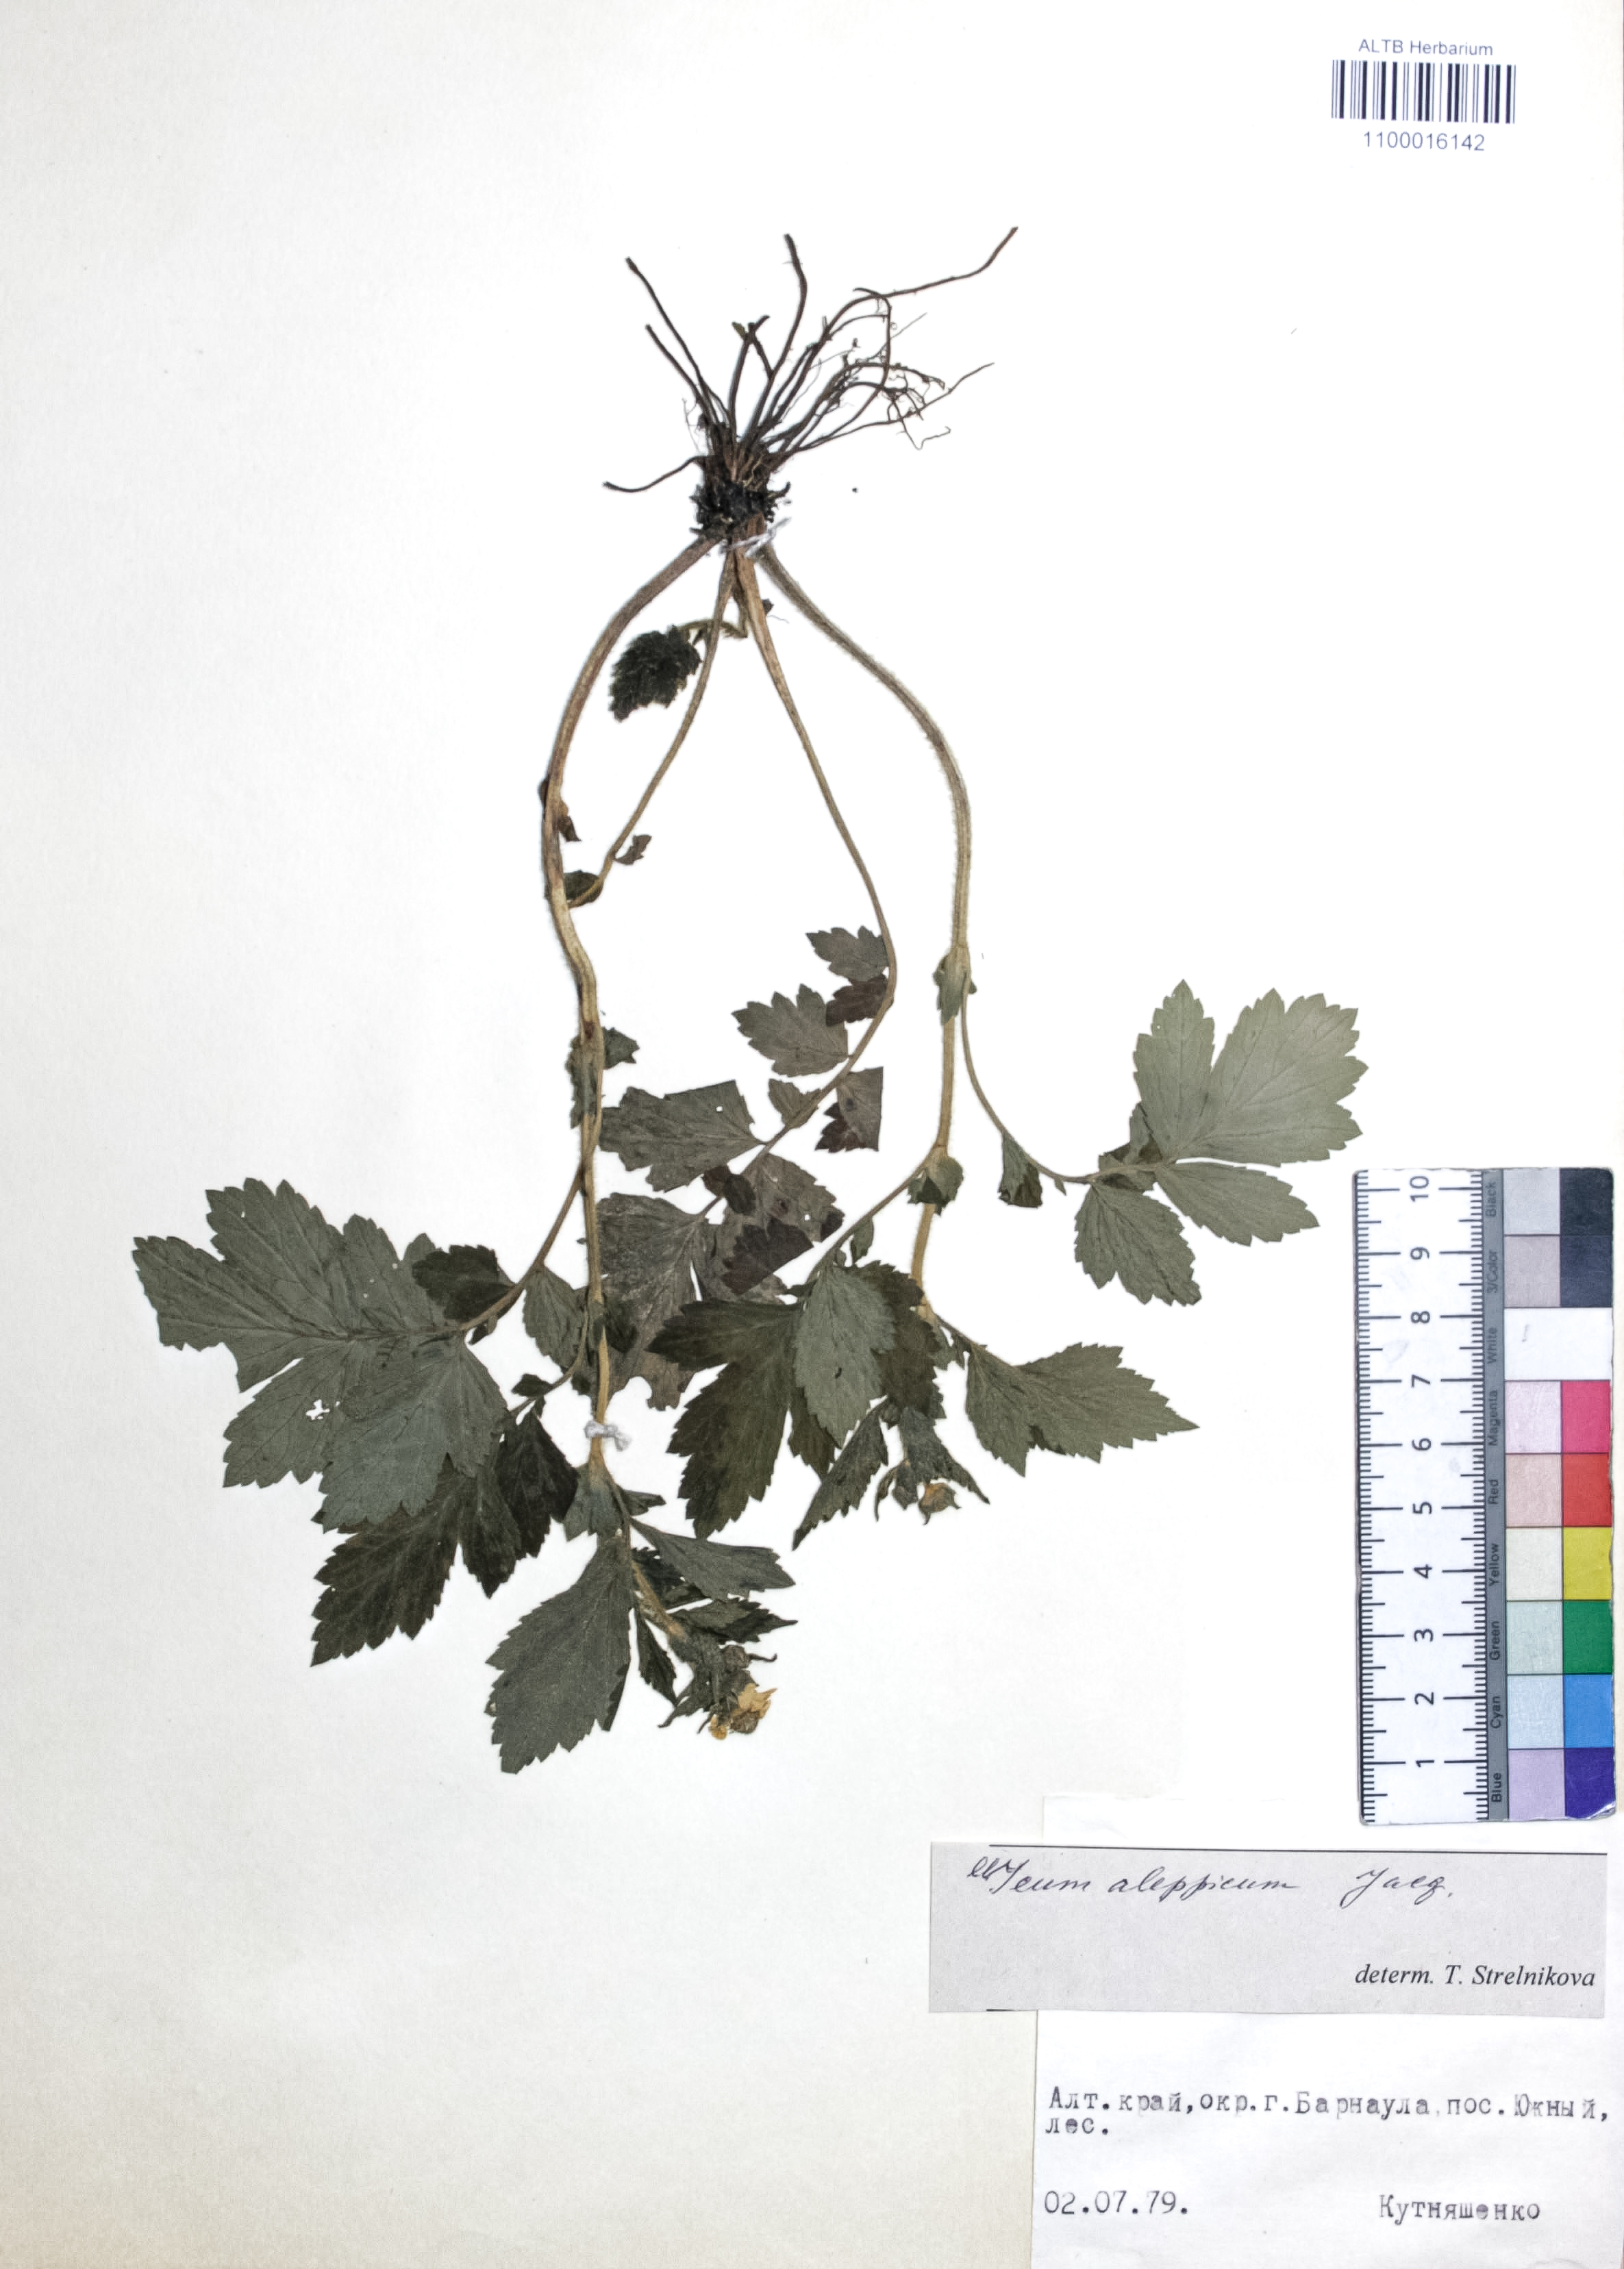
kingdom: Plantae
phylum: Tracheophyta
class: Magnoliopsida
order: Rosales
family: Rosaceae
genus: Geum
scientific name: Geum aleppicum
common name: Yellow avens
